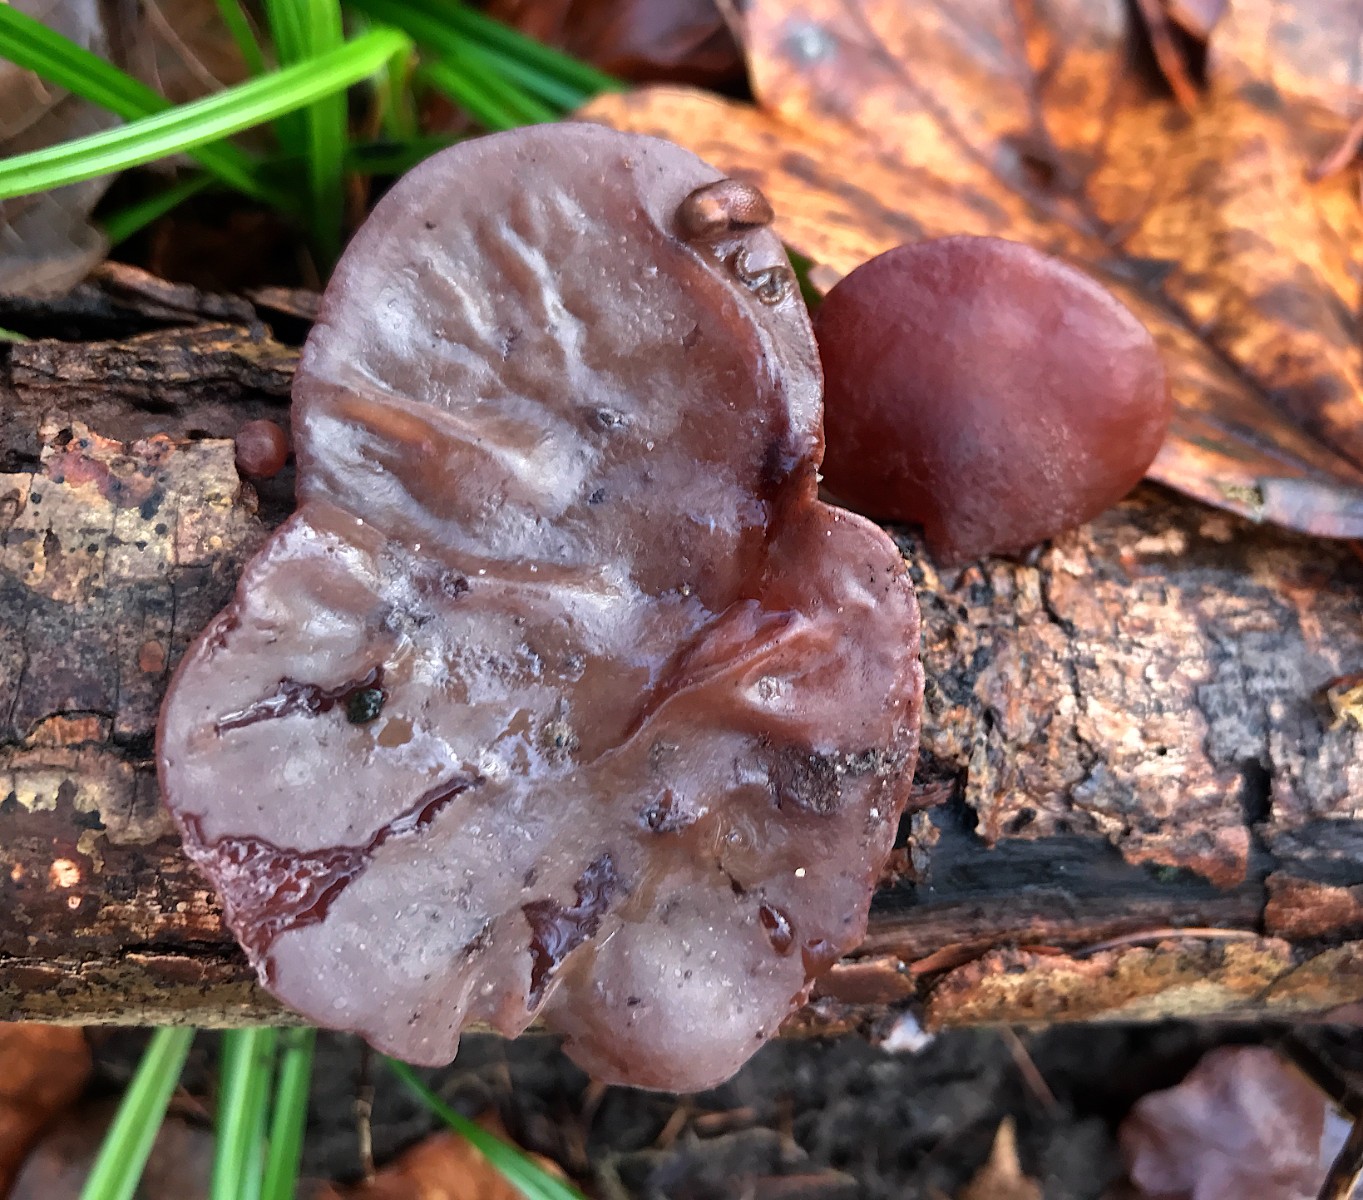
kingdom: Fungi
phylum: Basidiomycota
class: Agaricomycetes
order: Auriculariales
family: Auriculariaceae
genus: Auricularia
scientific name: Auricularia auricula-judae
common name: almindelig judasøre
